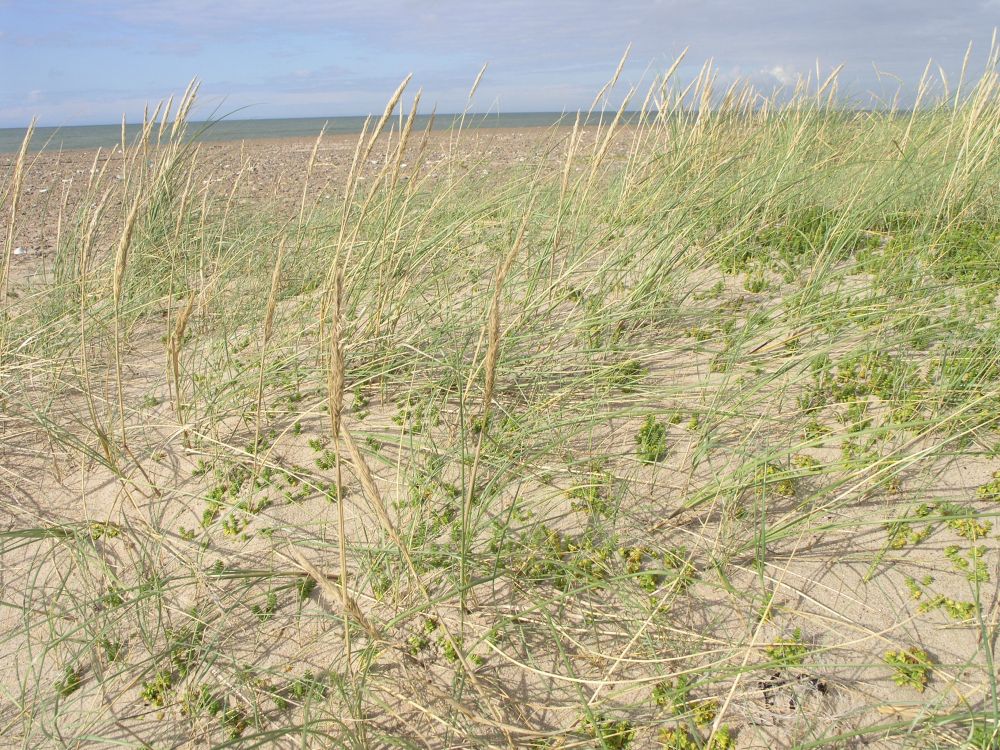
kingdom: Plantae
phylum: Tracheophyta
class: Magnoliopsida
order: Caryophyllales
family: Caryophyllaceae
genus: Honckenya
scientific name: Honckenya peploides
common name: Sea sandwort
